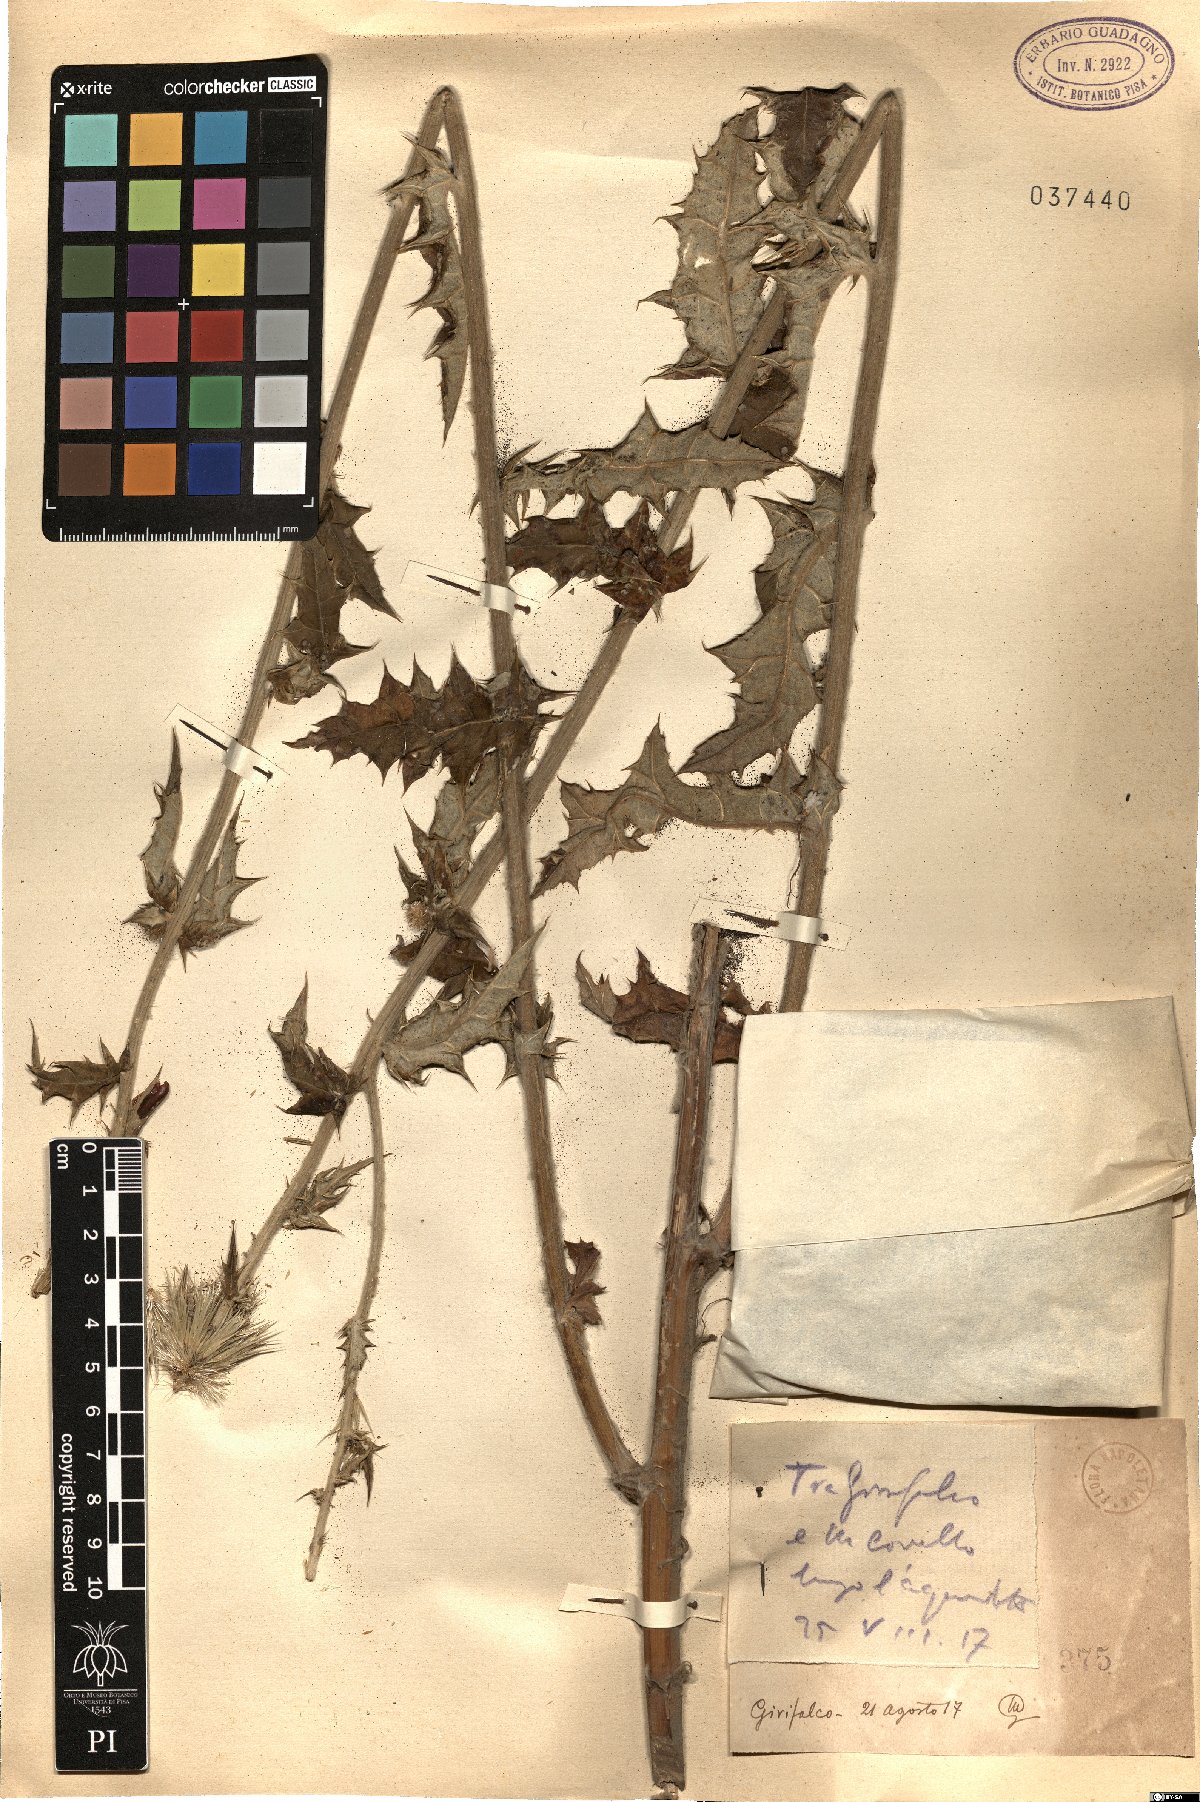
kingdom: Plantae
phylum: Tracheophyta
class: Magnoliopsida
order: Asterales
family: Asteraceae
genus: Echinops
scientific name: Echinops
